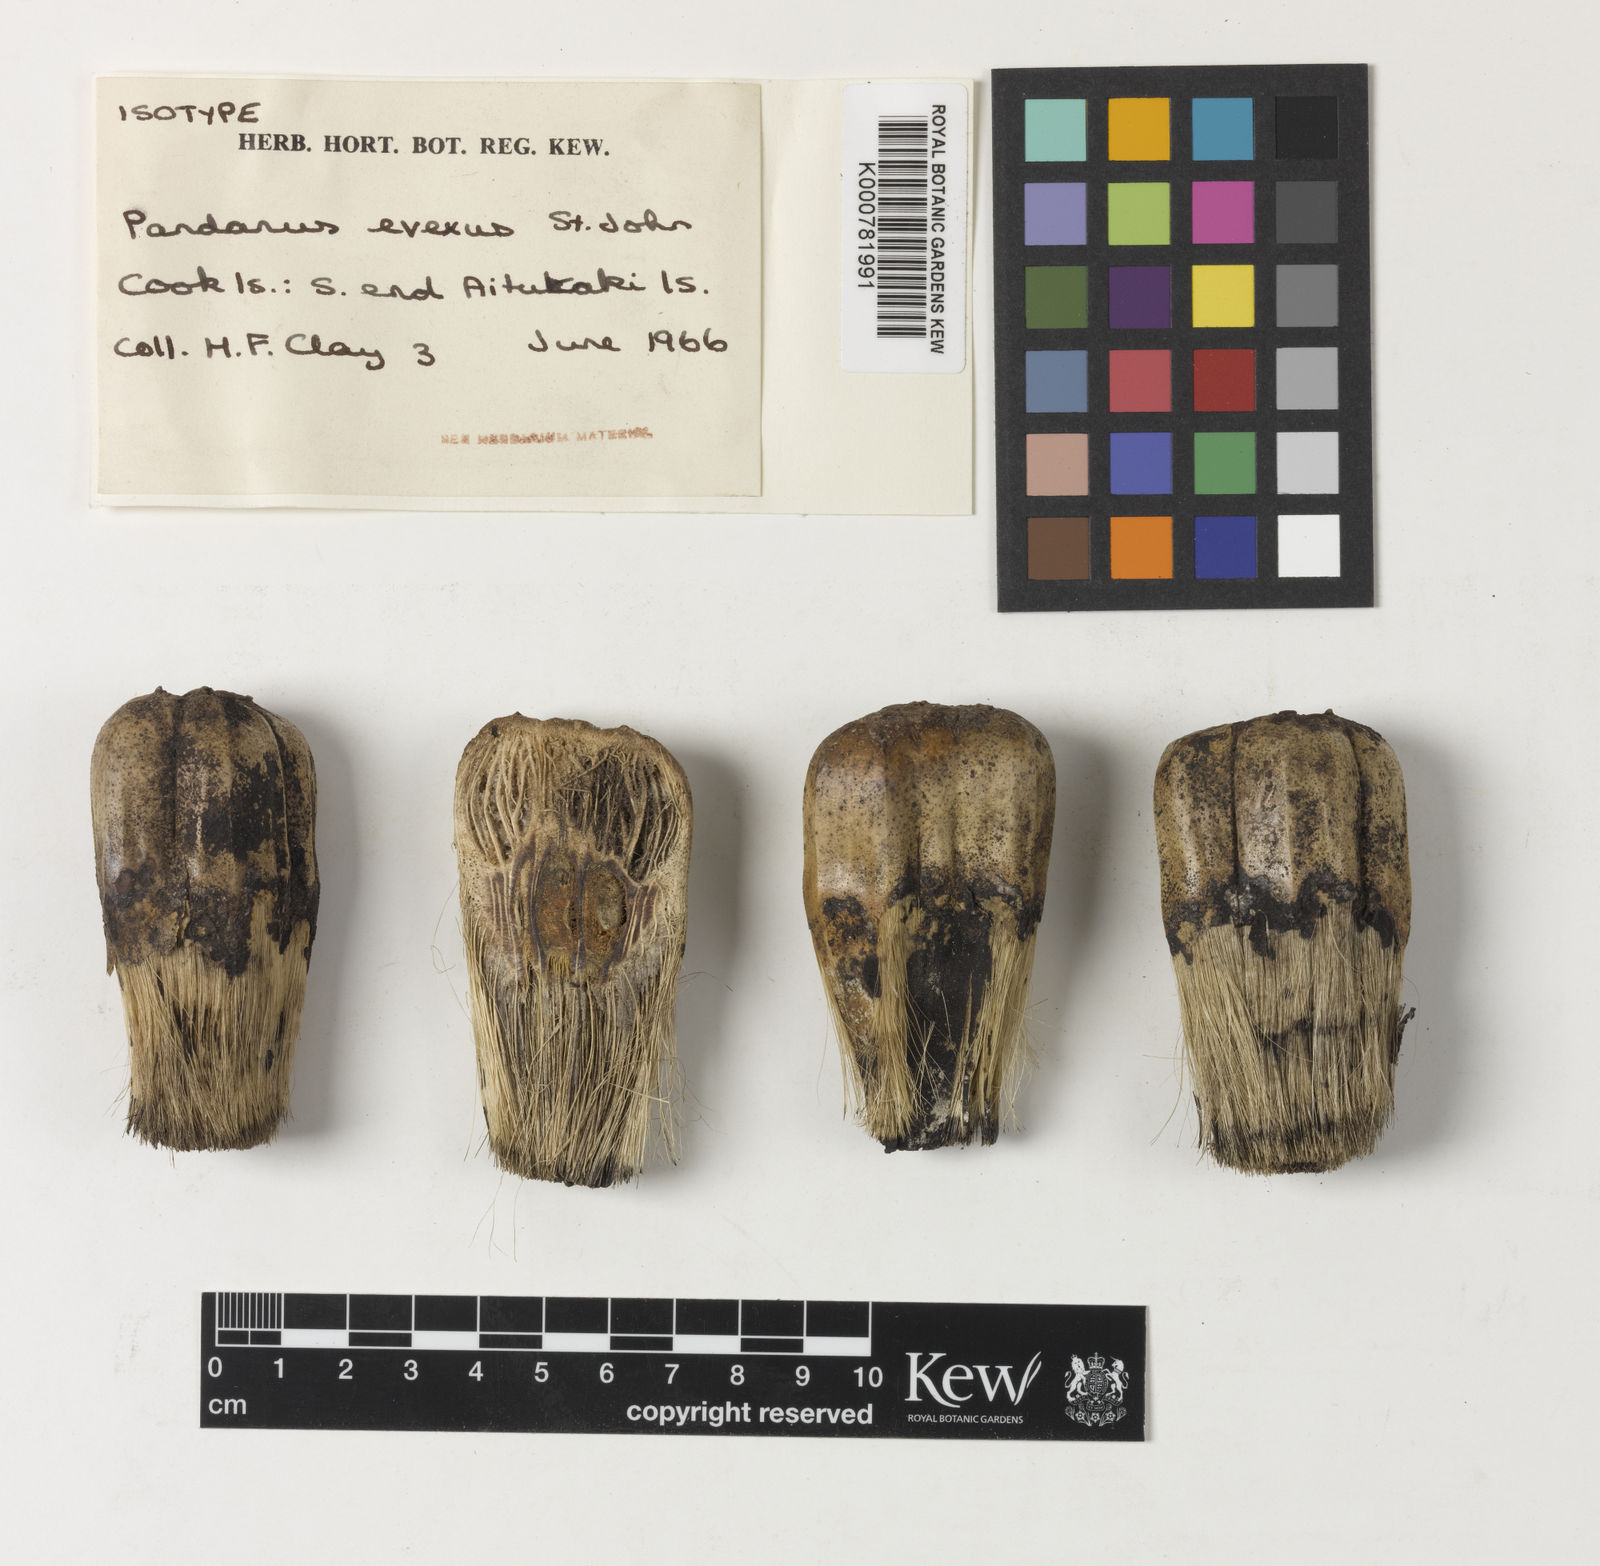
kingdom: Plantae
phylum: Tracheophyta
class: Liliopsida
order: Pandanales
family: Pandanaceae
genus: Pandanus
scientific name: Pandanus tectorius
